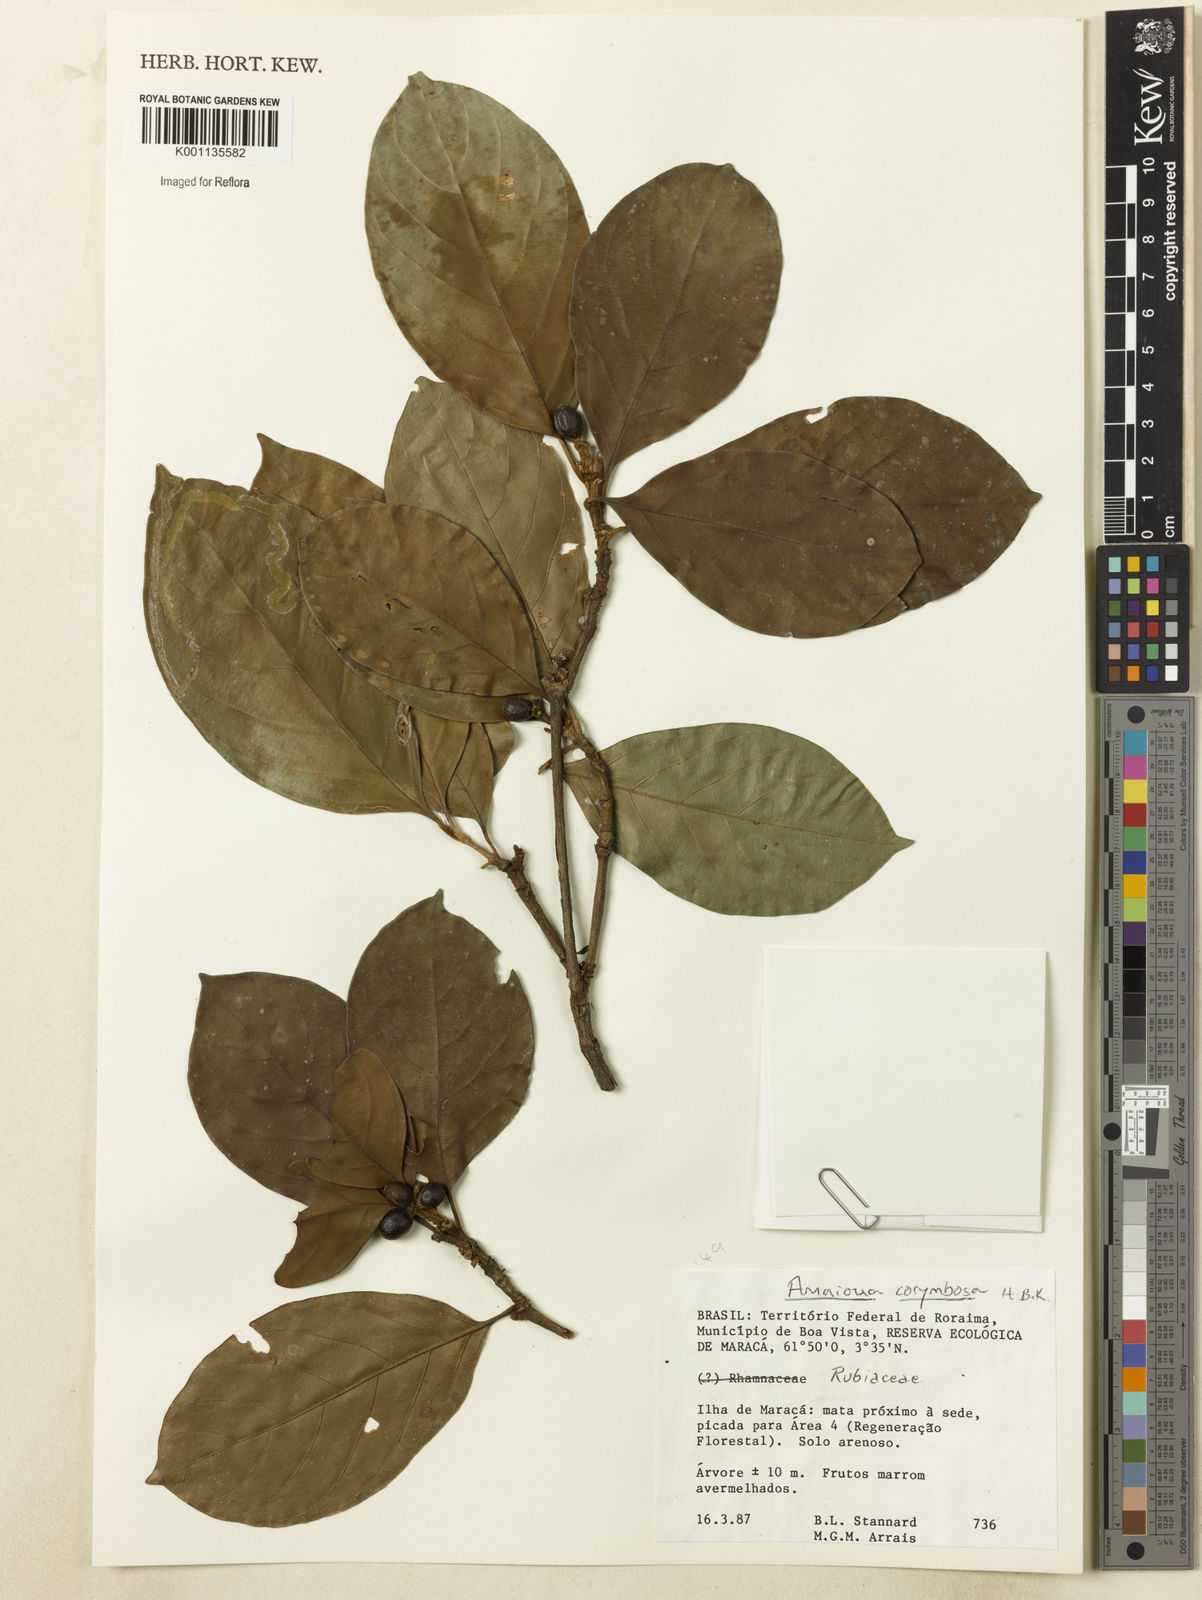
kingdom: Plantae
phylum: Tracheophyta
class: Magnoliopsida
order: Gentianales
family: Rubiaceae
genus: Amaioua
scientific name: Amaioua glomerulata
